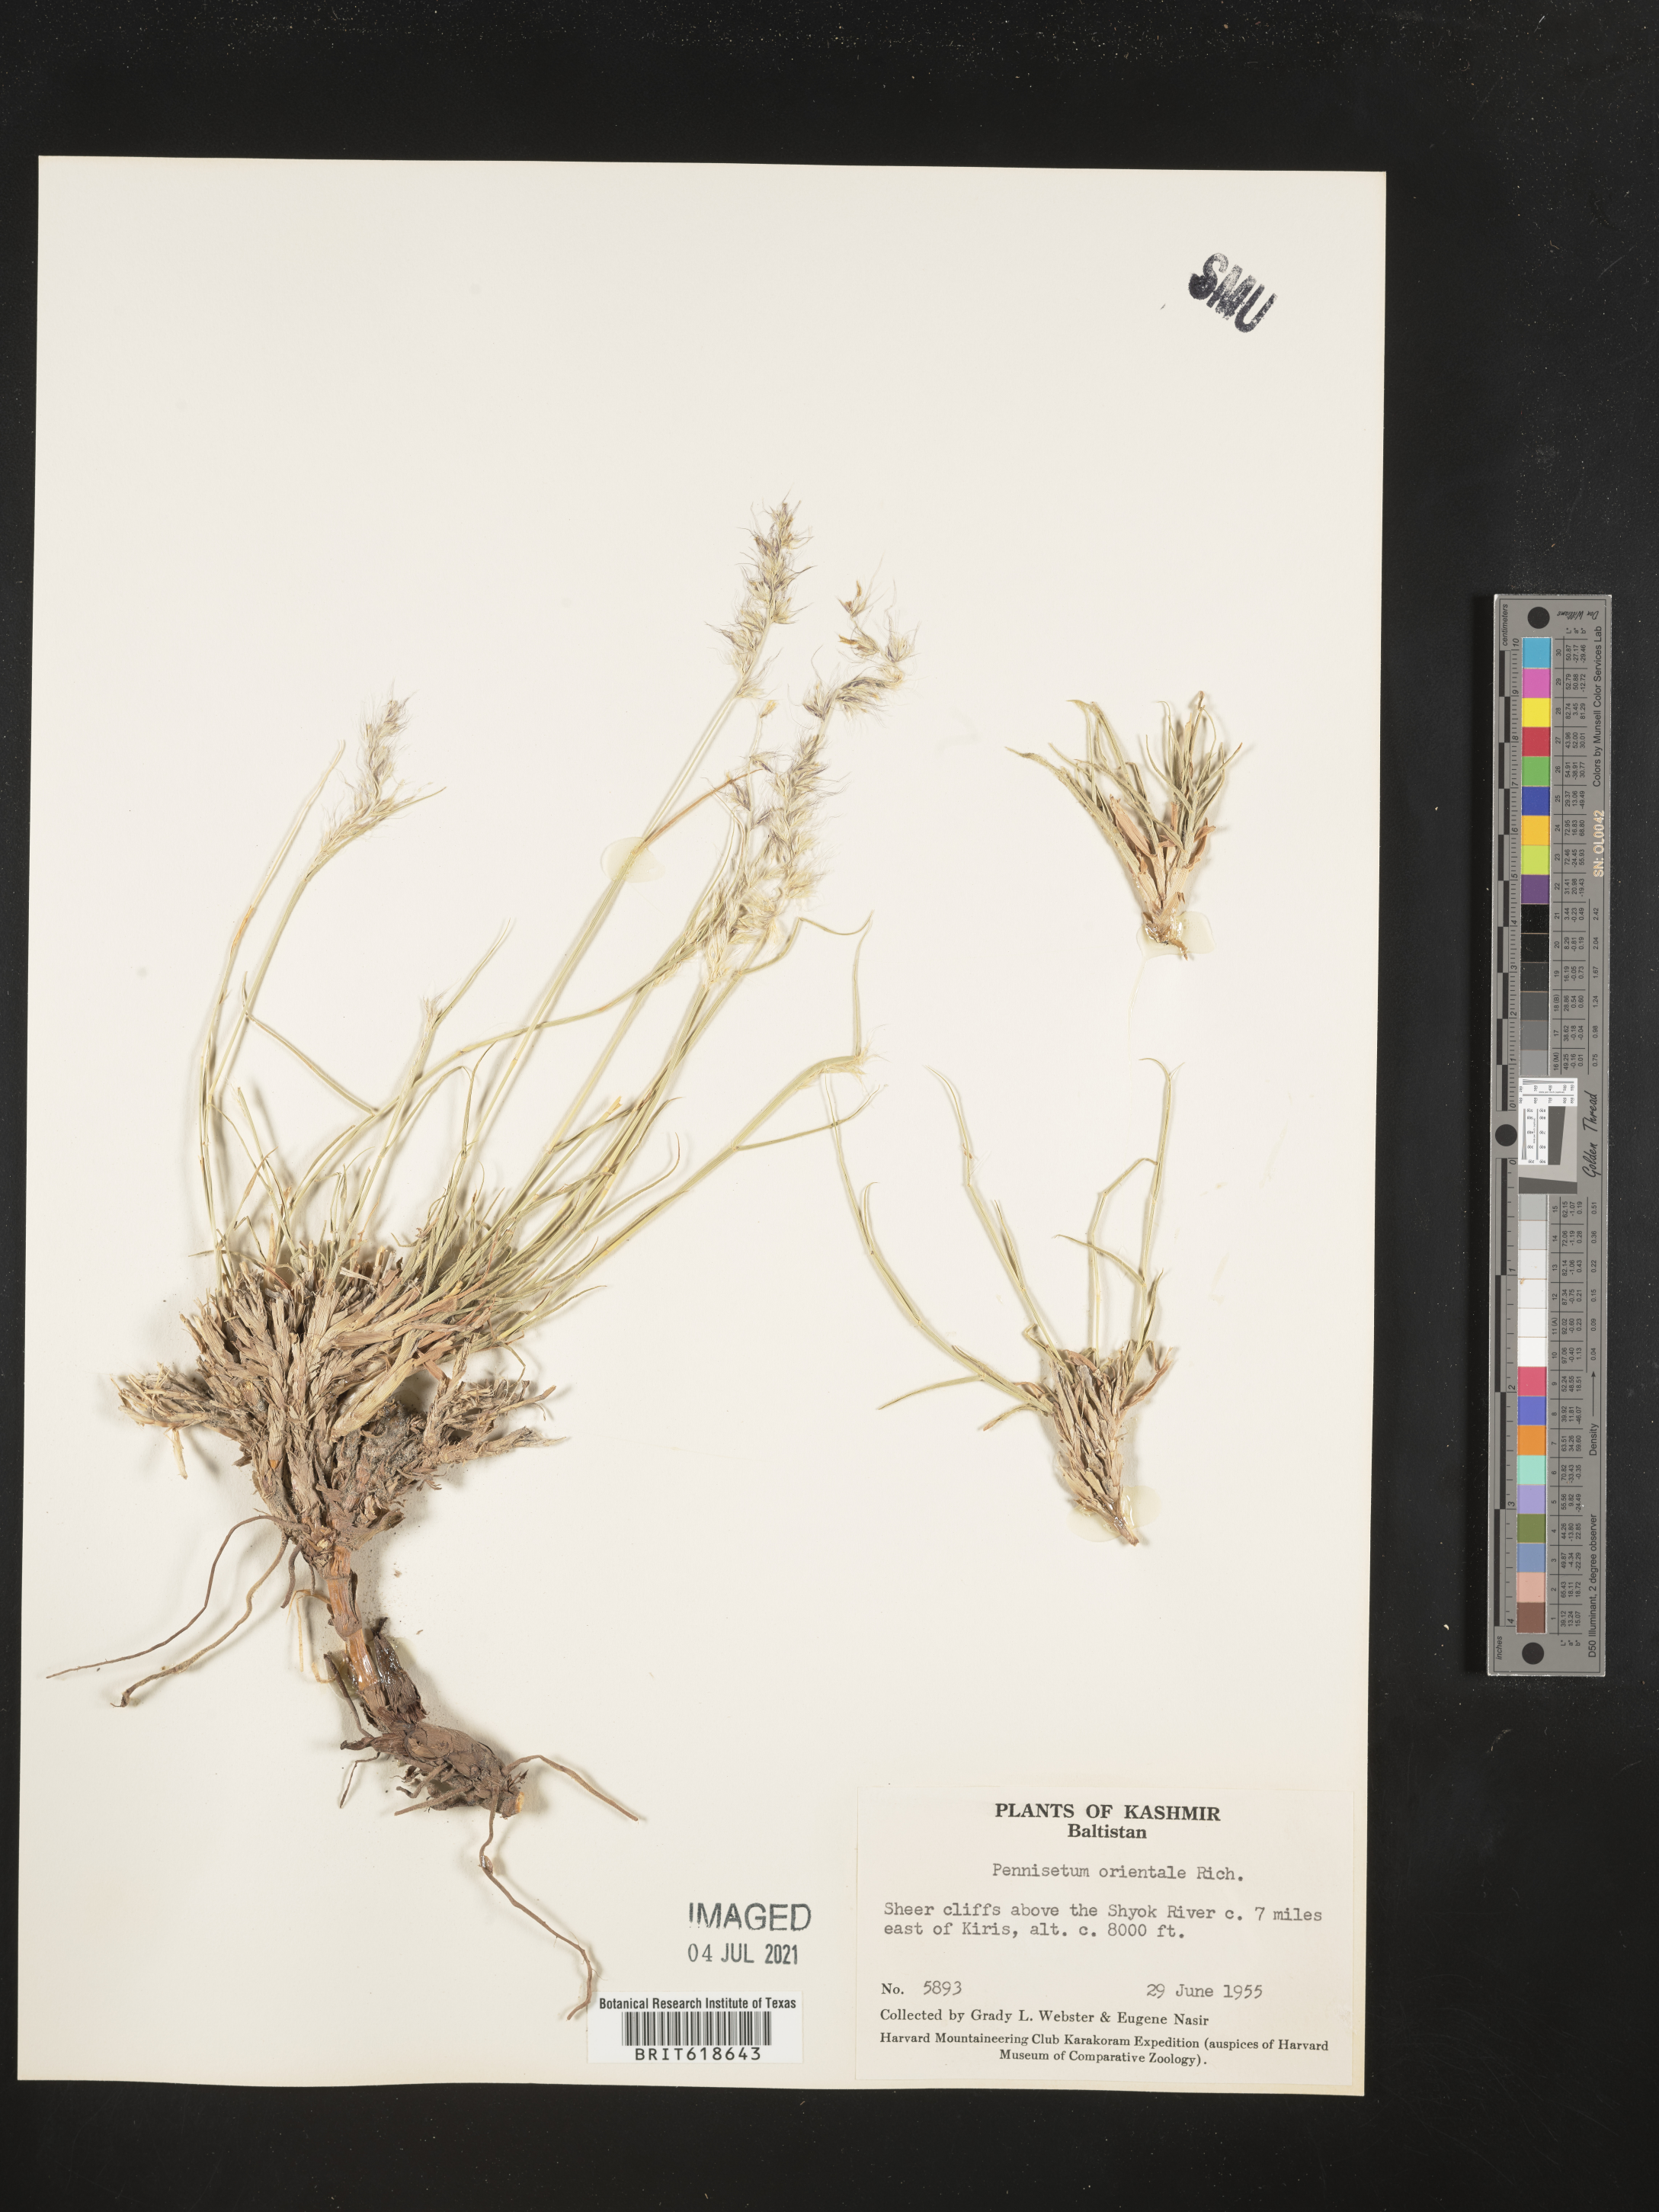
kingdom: Plantae
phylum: Tracheophyta
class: Liliopsida
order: Poales
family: Poaceae
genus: Cenchrus
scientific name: Cenchrus orientalis
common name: Oriental fountain grass
